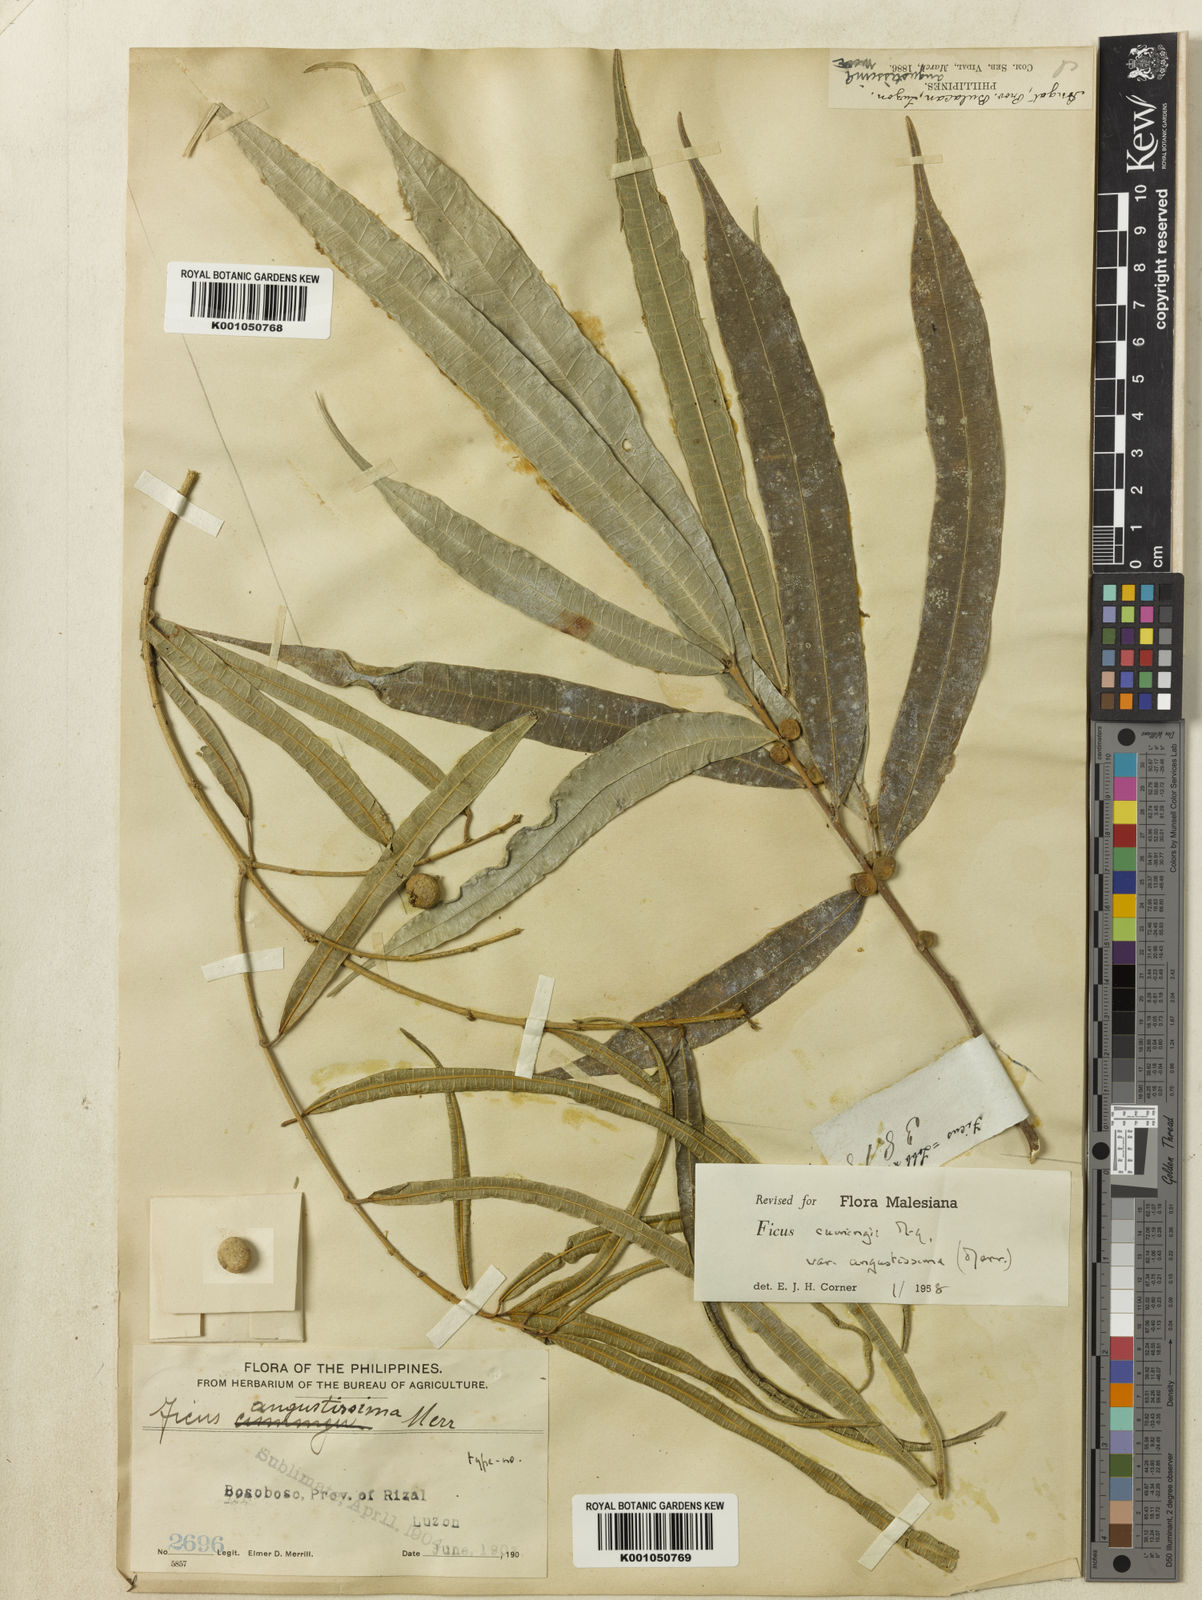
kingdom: Plantae
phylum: Tracheophyta
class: Magnoliopsida
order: Rosales
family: Moraceae
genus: Ficus
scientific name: Ficus cumingii
